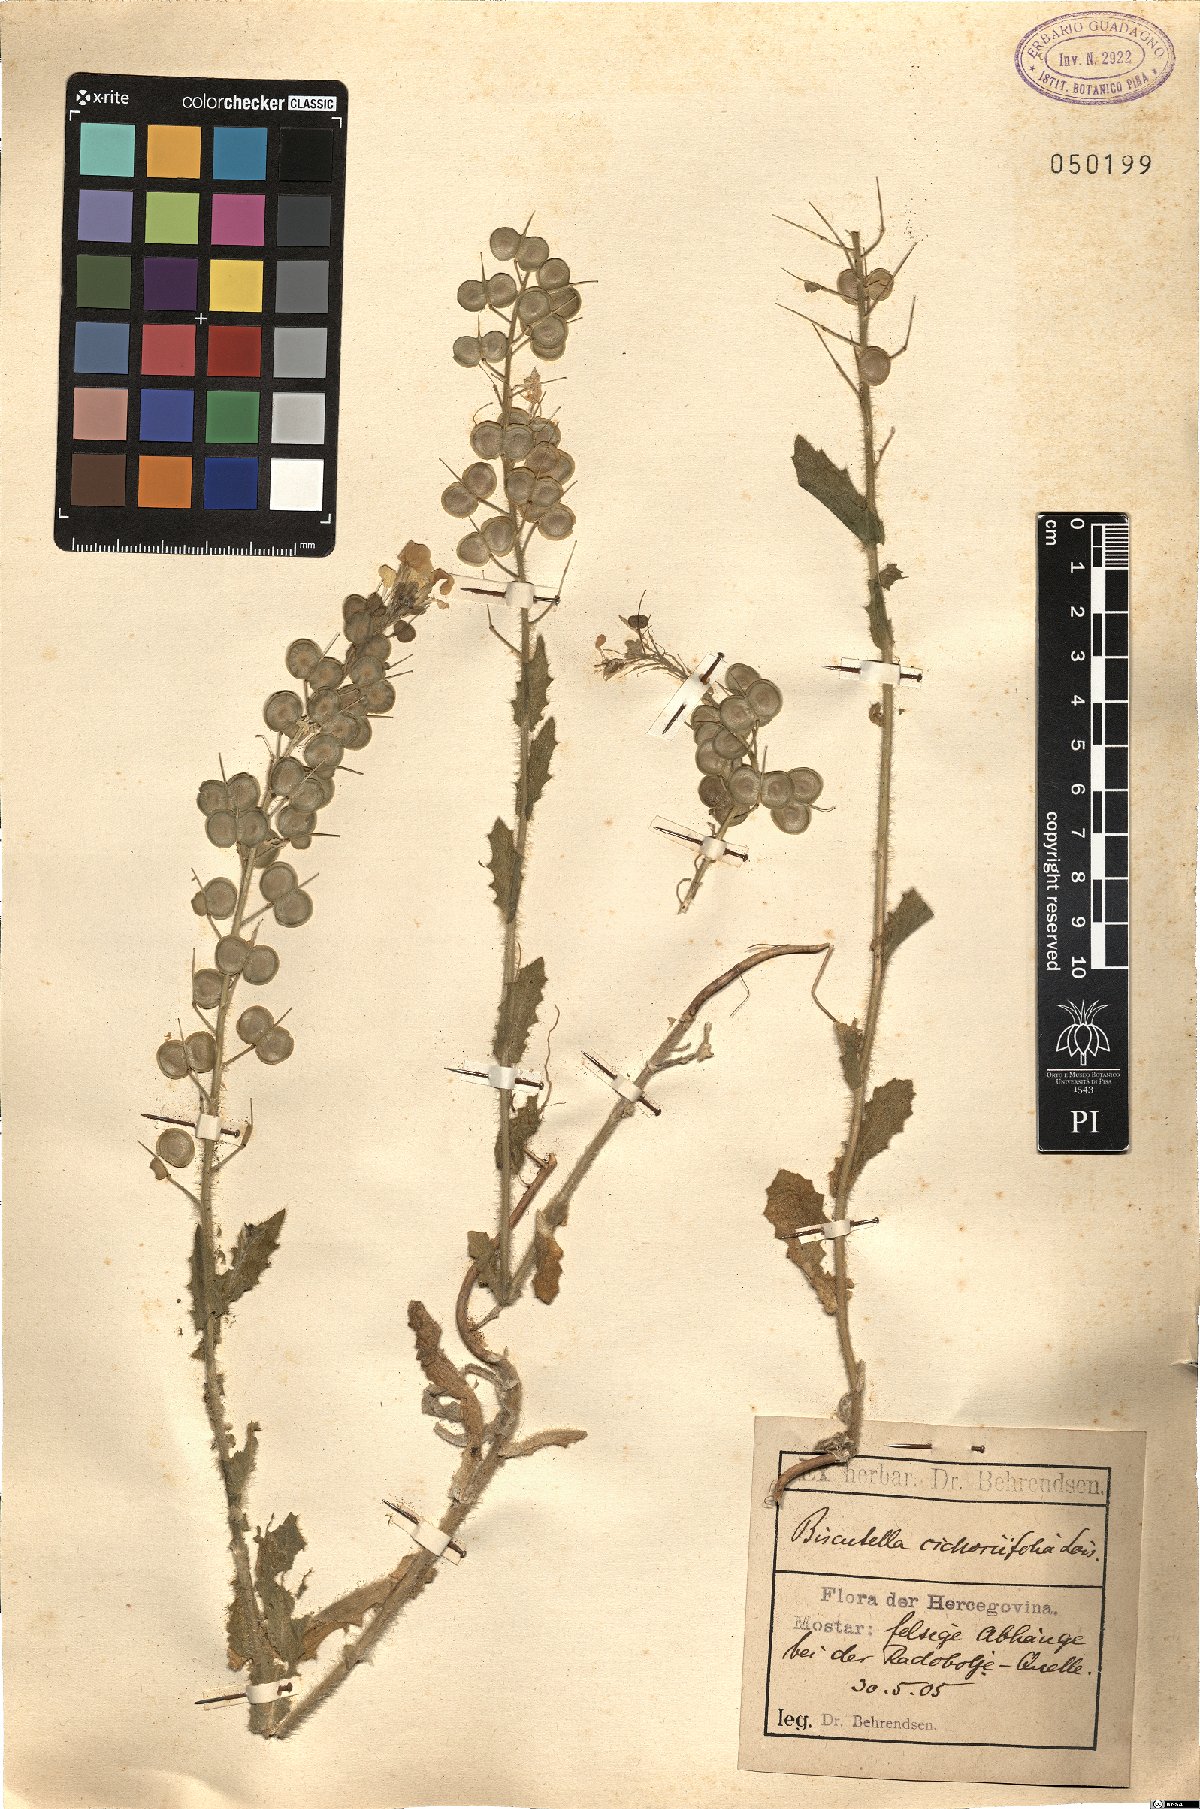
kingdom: Plantae
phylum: Tracheophyta
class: Magnoliopsida
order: Brassicales
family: Brassicaceae
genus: Biscutella
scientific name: Biscutella cichoriifolia
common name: Chicory-leaf buckler mustard
